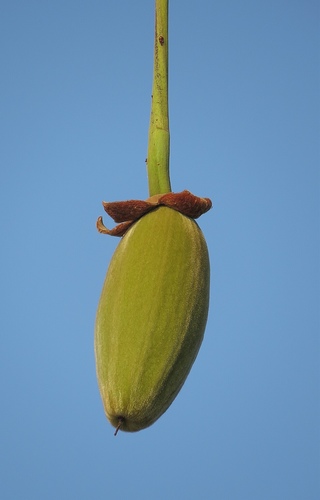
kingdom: Plantae
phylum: Tracheophyta
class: Magnoliopsida
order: Malvales
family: Malvaceae
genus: Adansonia
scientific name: Adansonia digitata
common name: Dead-rat-tree
